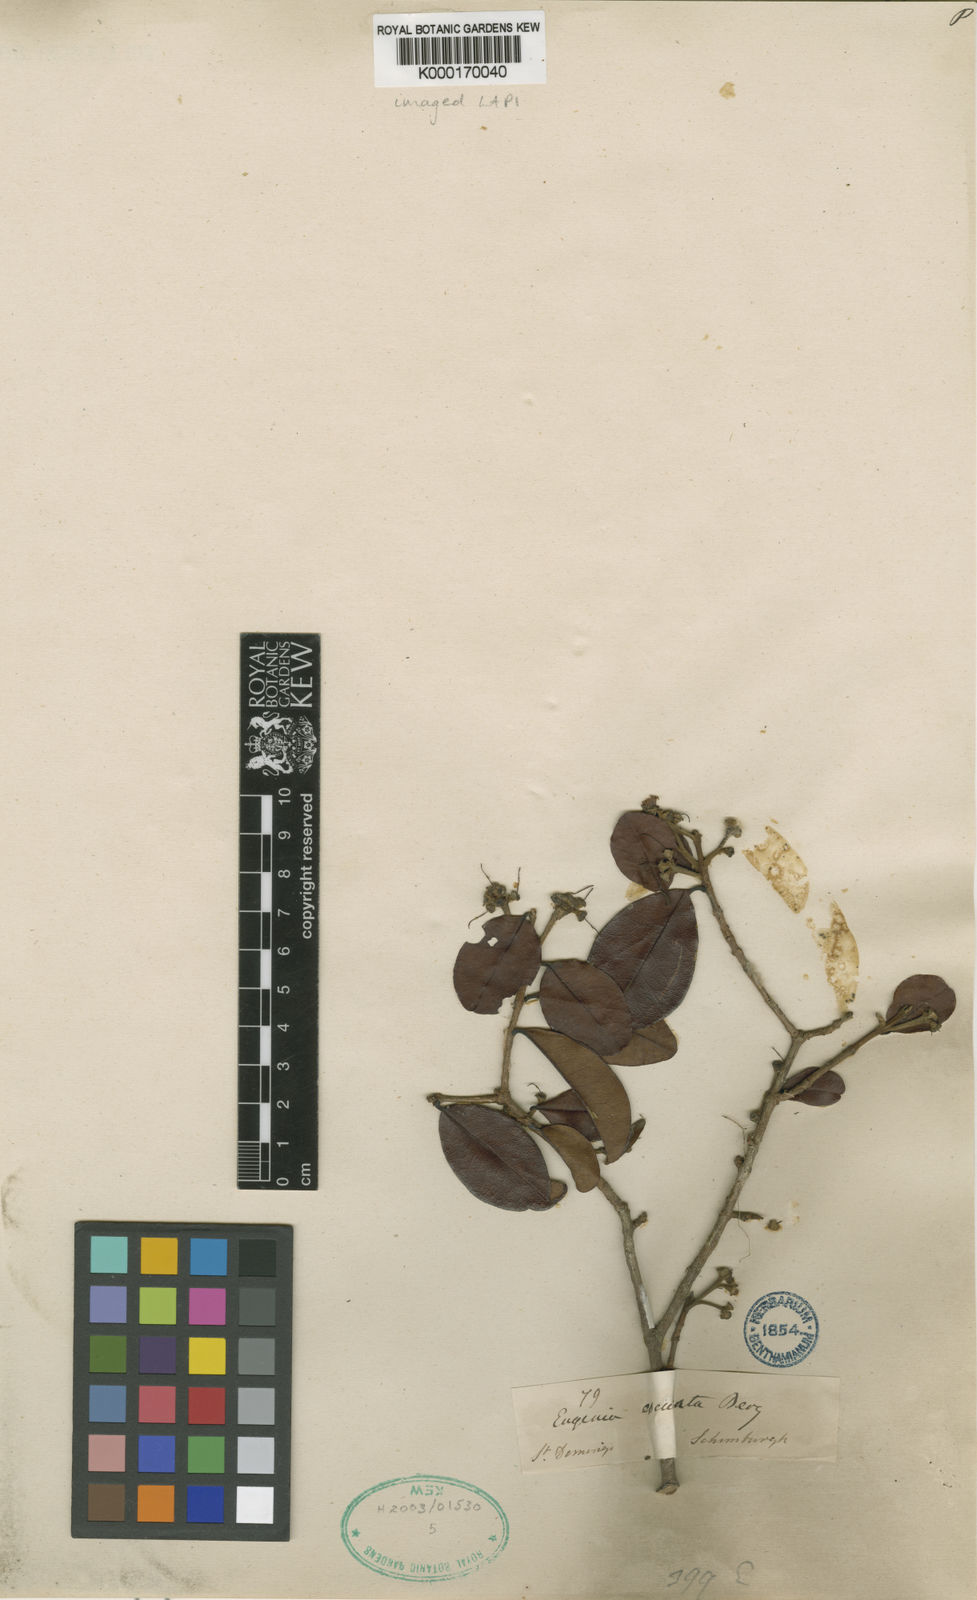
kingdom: Plantae
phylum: Tracheophyta
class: Magnoliopsida
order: Myrtales
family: Myrtaceae
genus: Pseudanamomis
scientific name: Pseudanamomis umbellulifera
